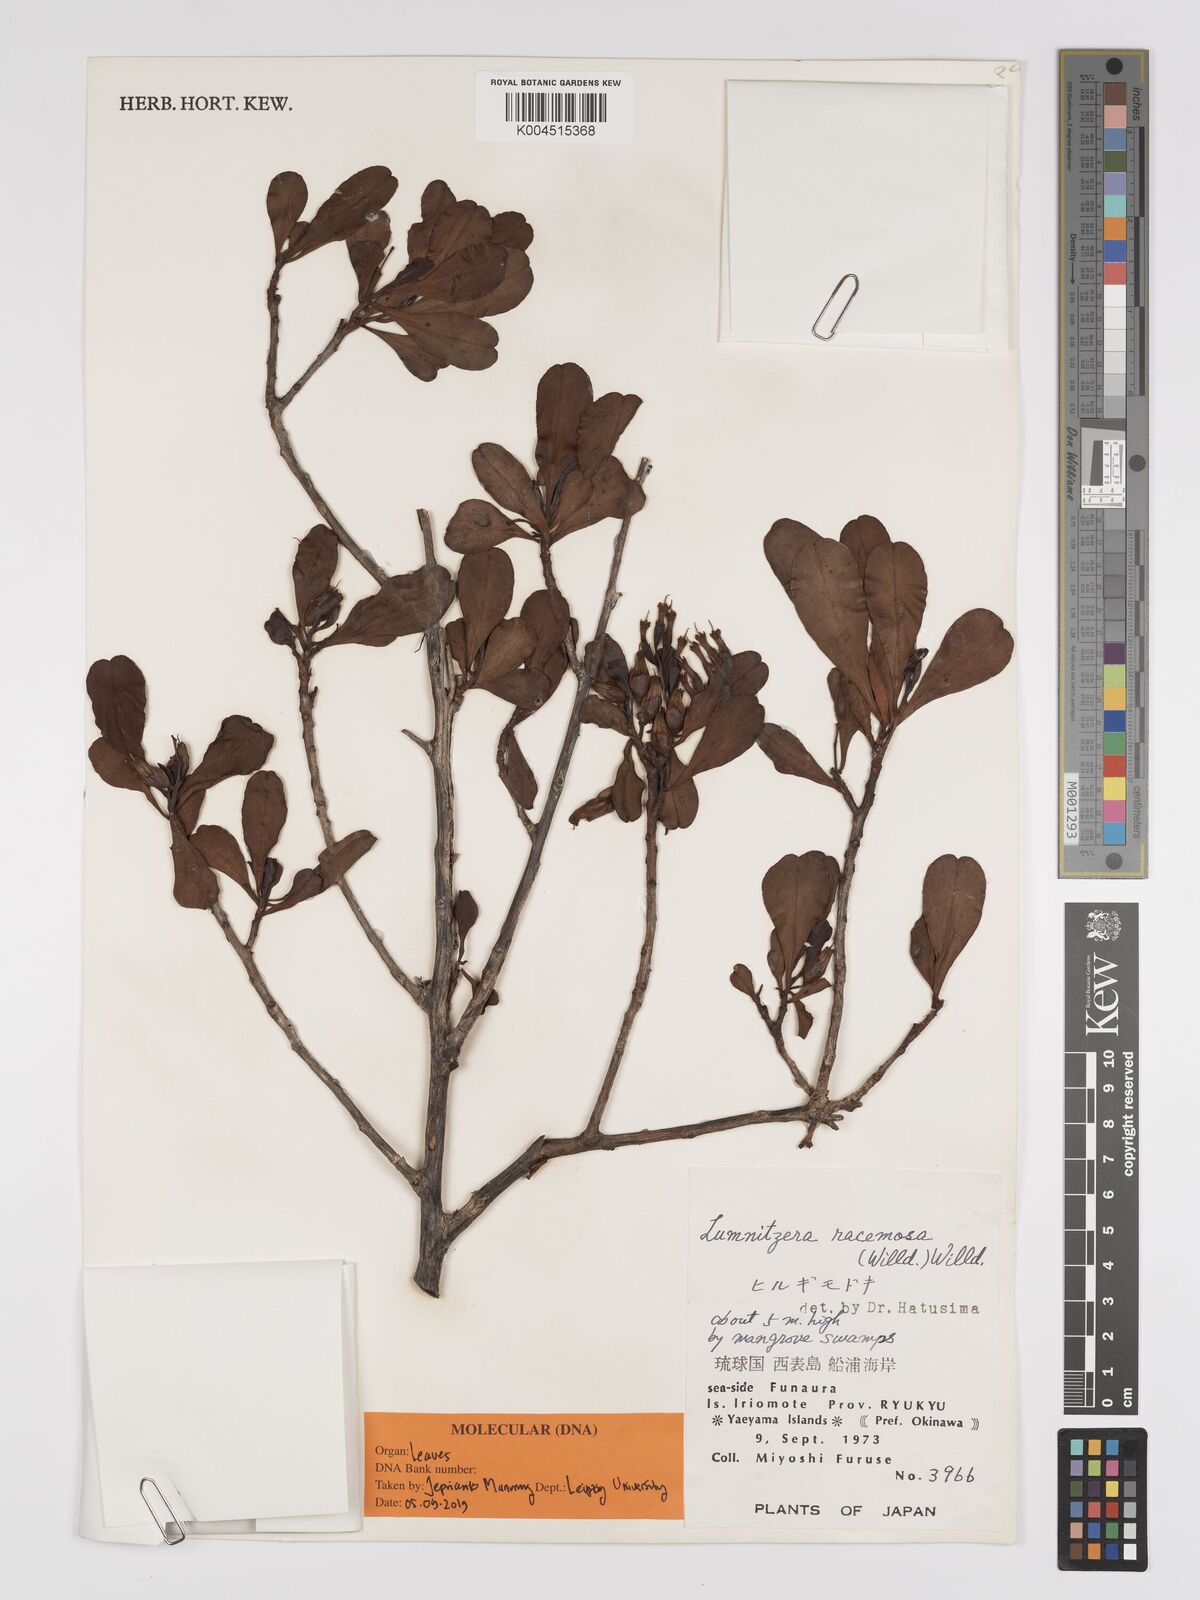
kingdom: Plantae
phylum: Tracheophyta
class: Magnoliopsida
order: Myrtales
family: Combretaceae
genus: Lumnitzera
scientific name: Lumnitzera racemosa
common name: White-flowered black mangrove
